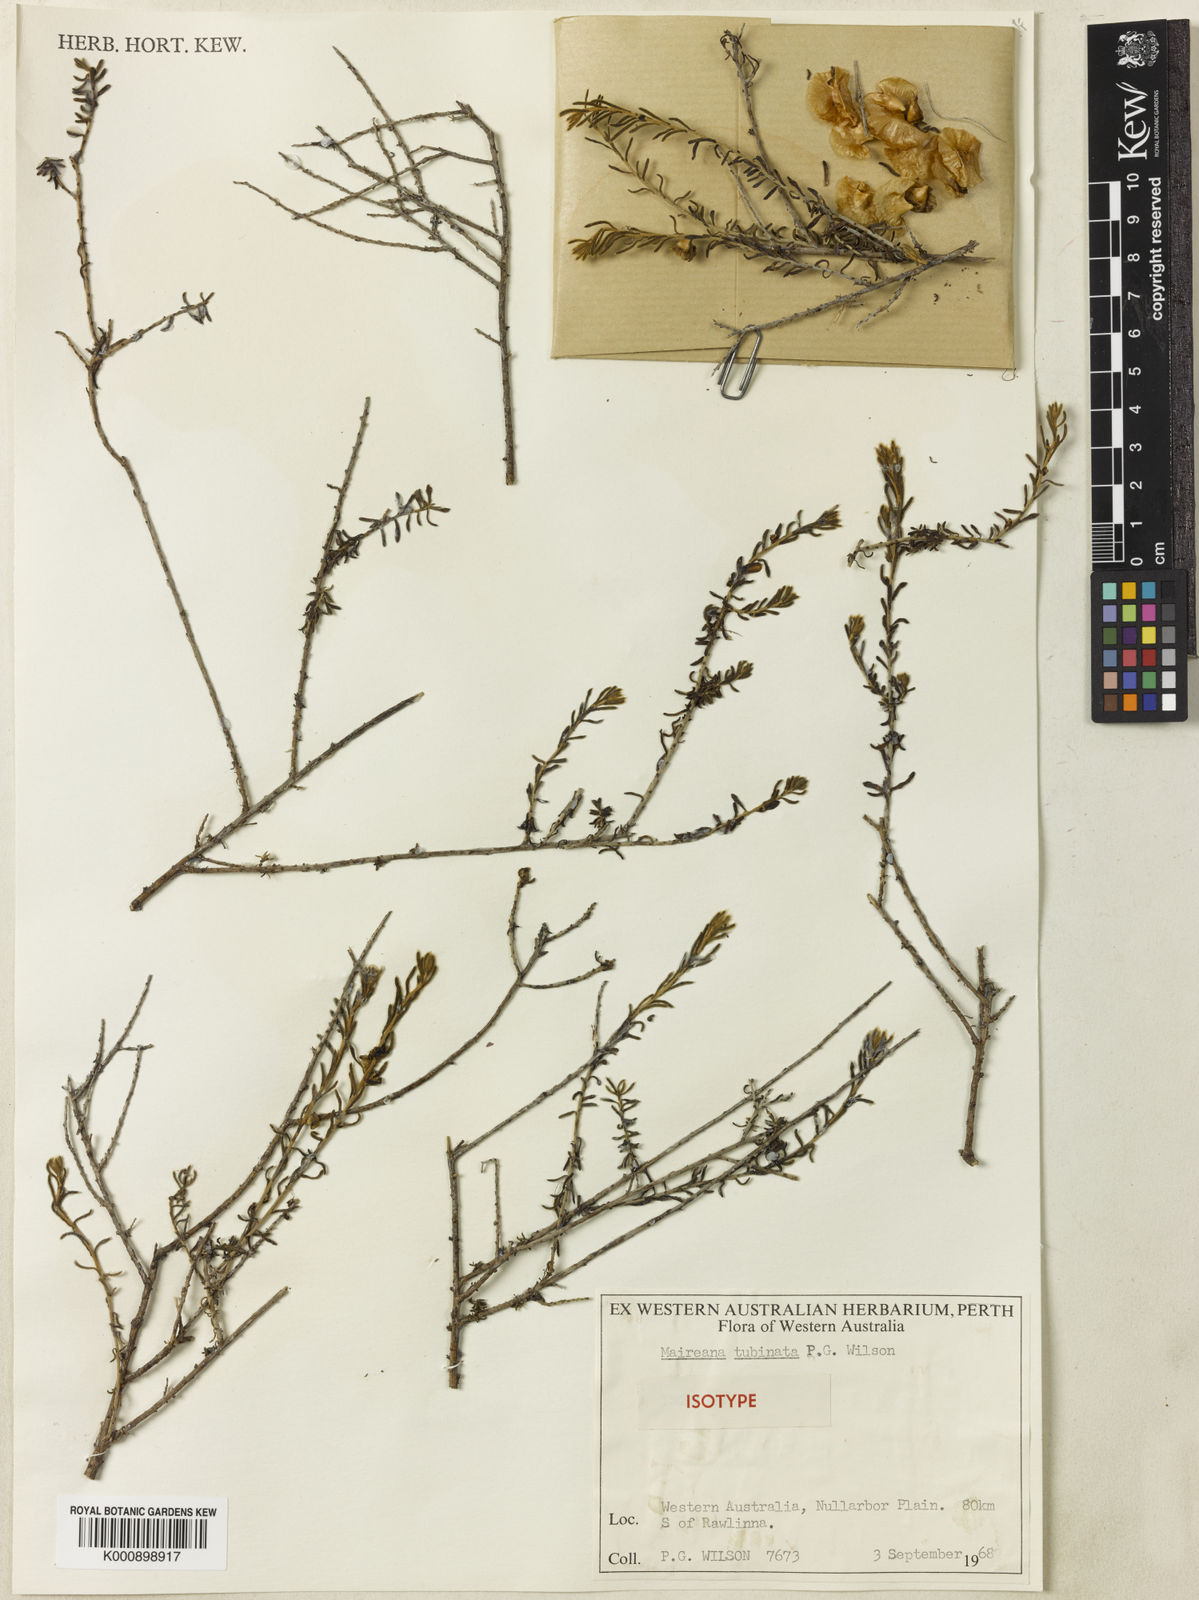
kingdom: Plantae
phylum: Tracheophyta
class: Magnoliopsida
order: Caryophyllales
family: Amaranthaceae
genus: Maireana
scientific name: Maireana
